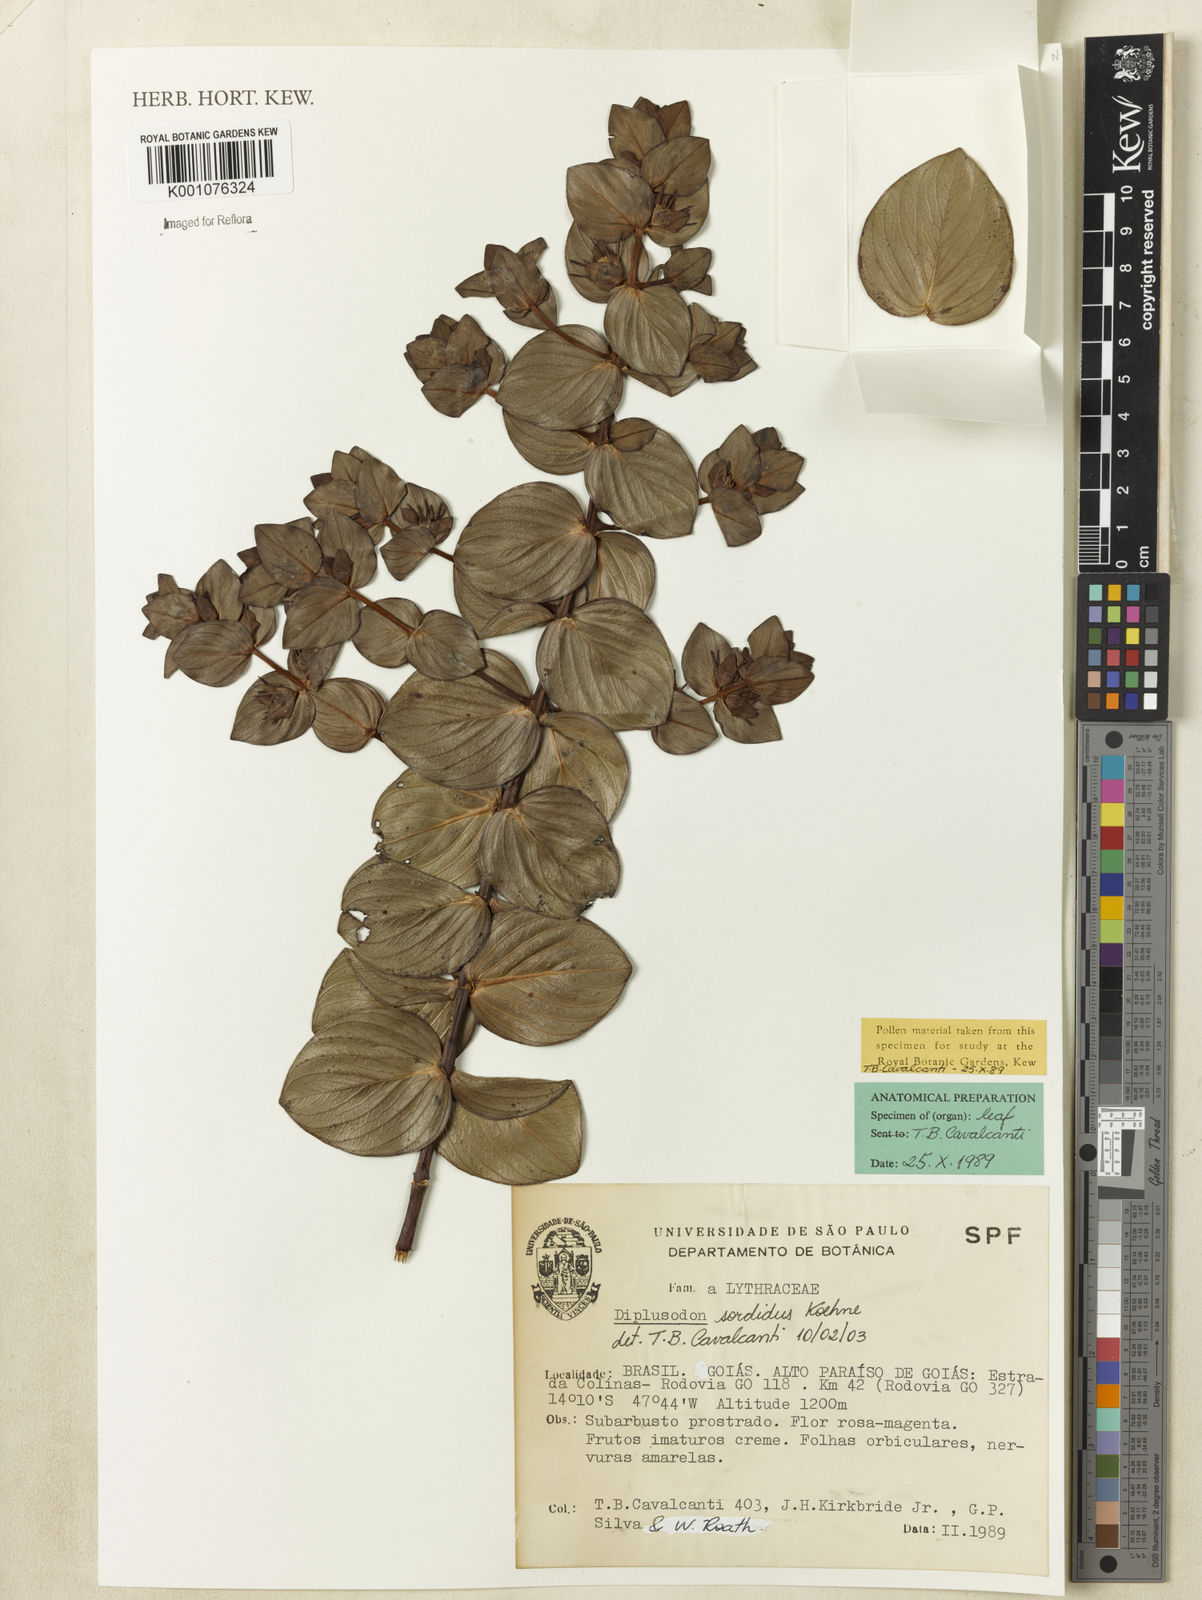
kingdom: Plantae
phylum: Tracheophyta
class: Magnoliopsida
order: Myrtales
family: Lythraceae
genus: Diplusodon
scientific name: Diplusodon sordidus
